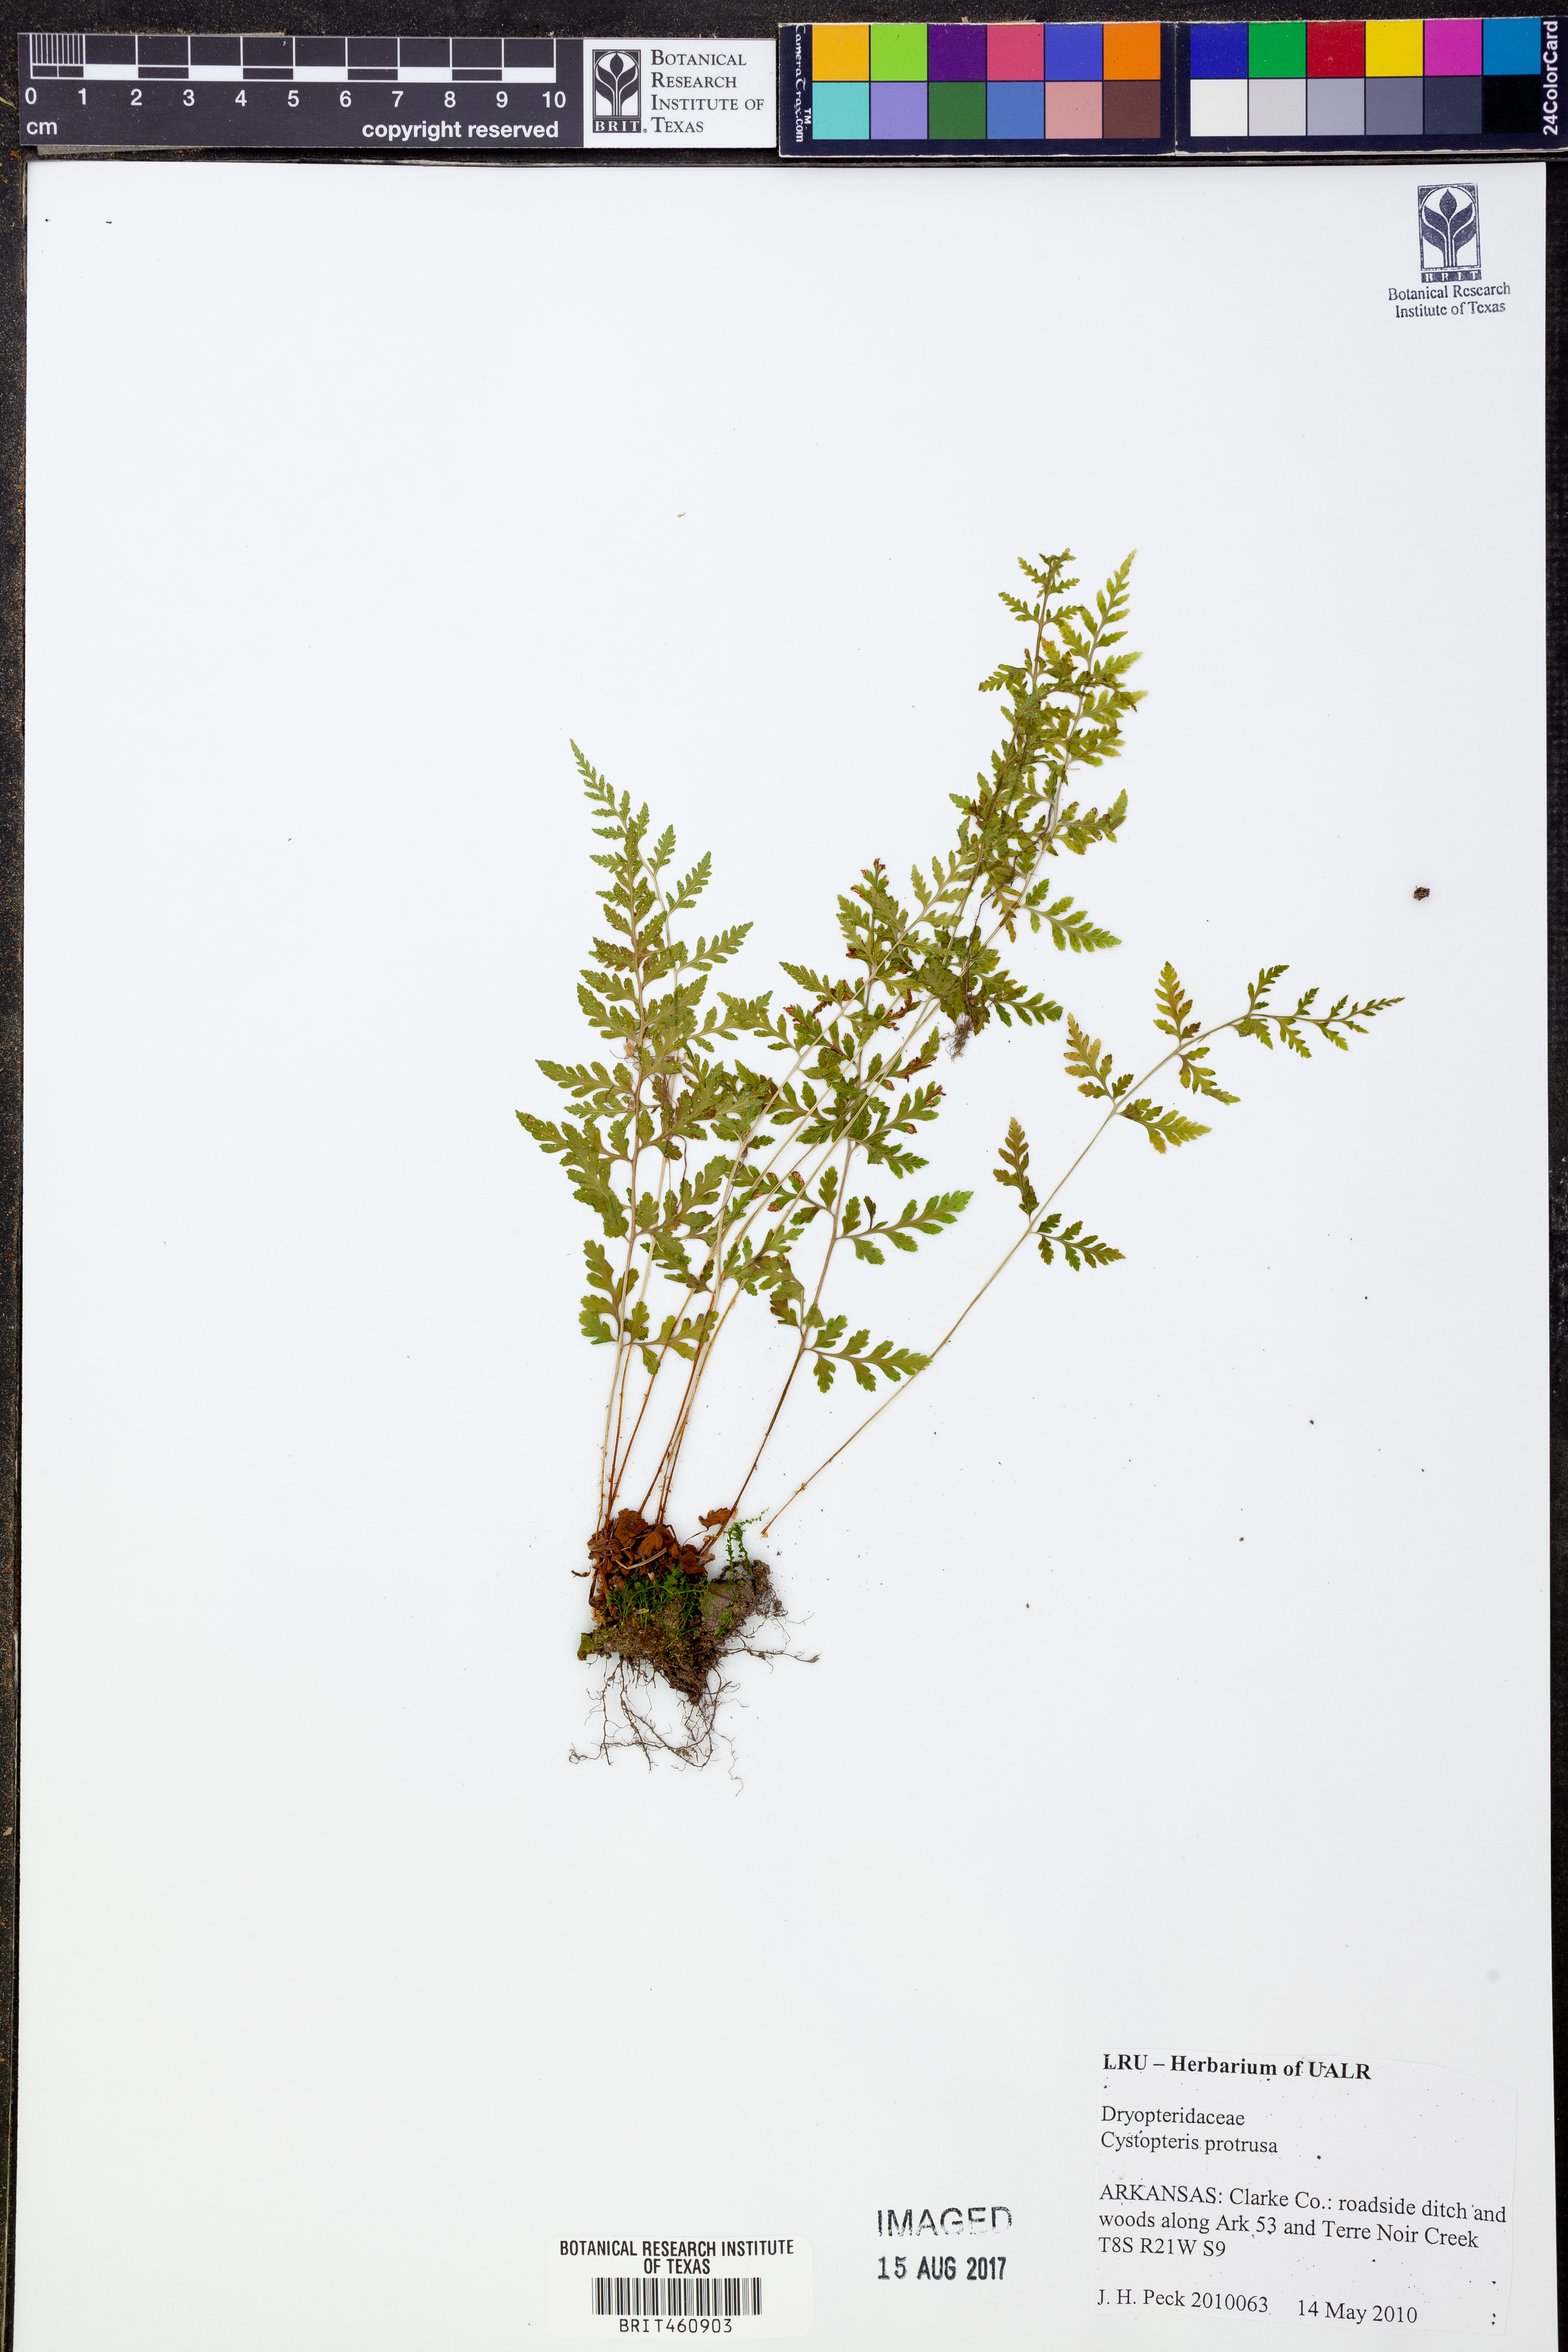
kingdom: Plantae
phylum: Tracheophyta
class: Polypodiopsida
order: Polypodiales
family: Cystopteridaceae
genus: Cystopteris
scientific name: Cystopteris protrusa
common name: Lowland brittle fern
